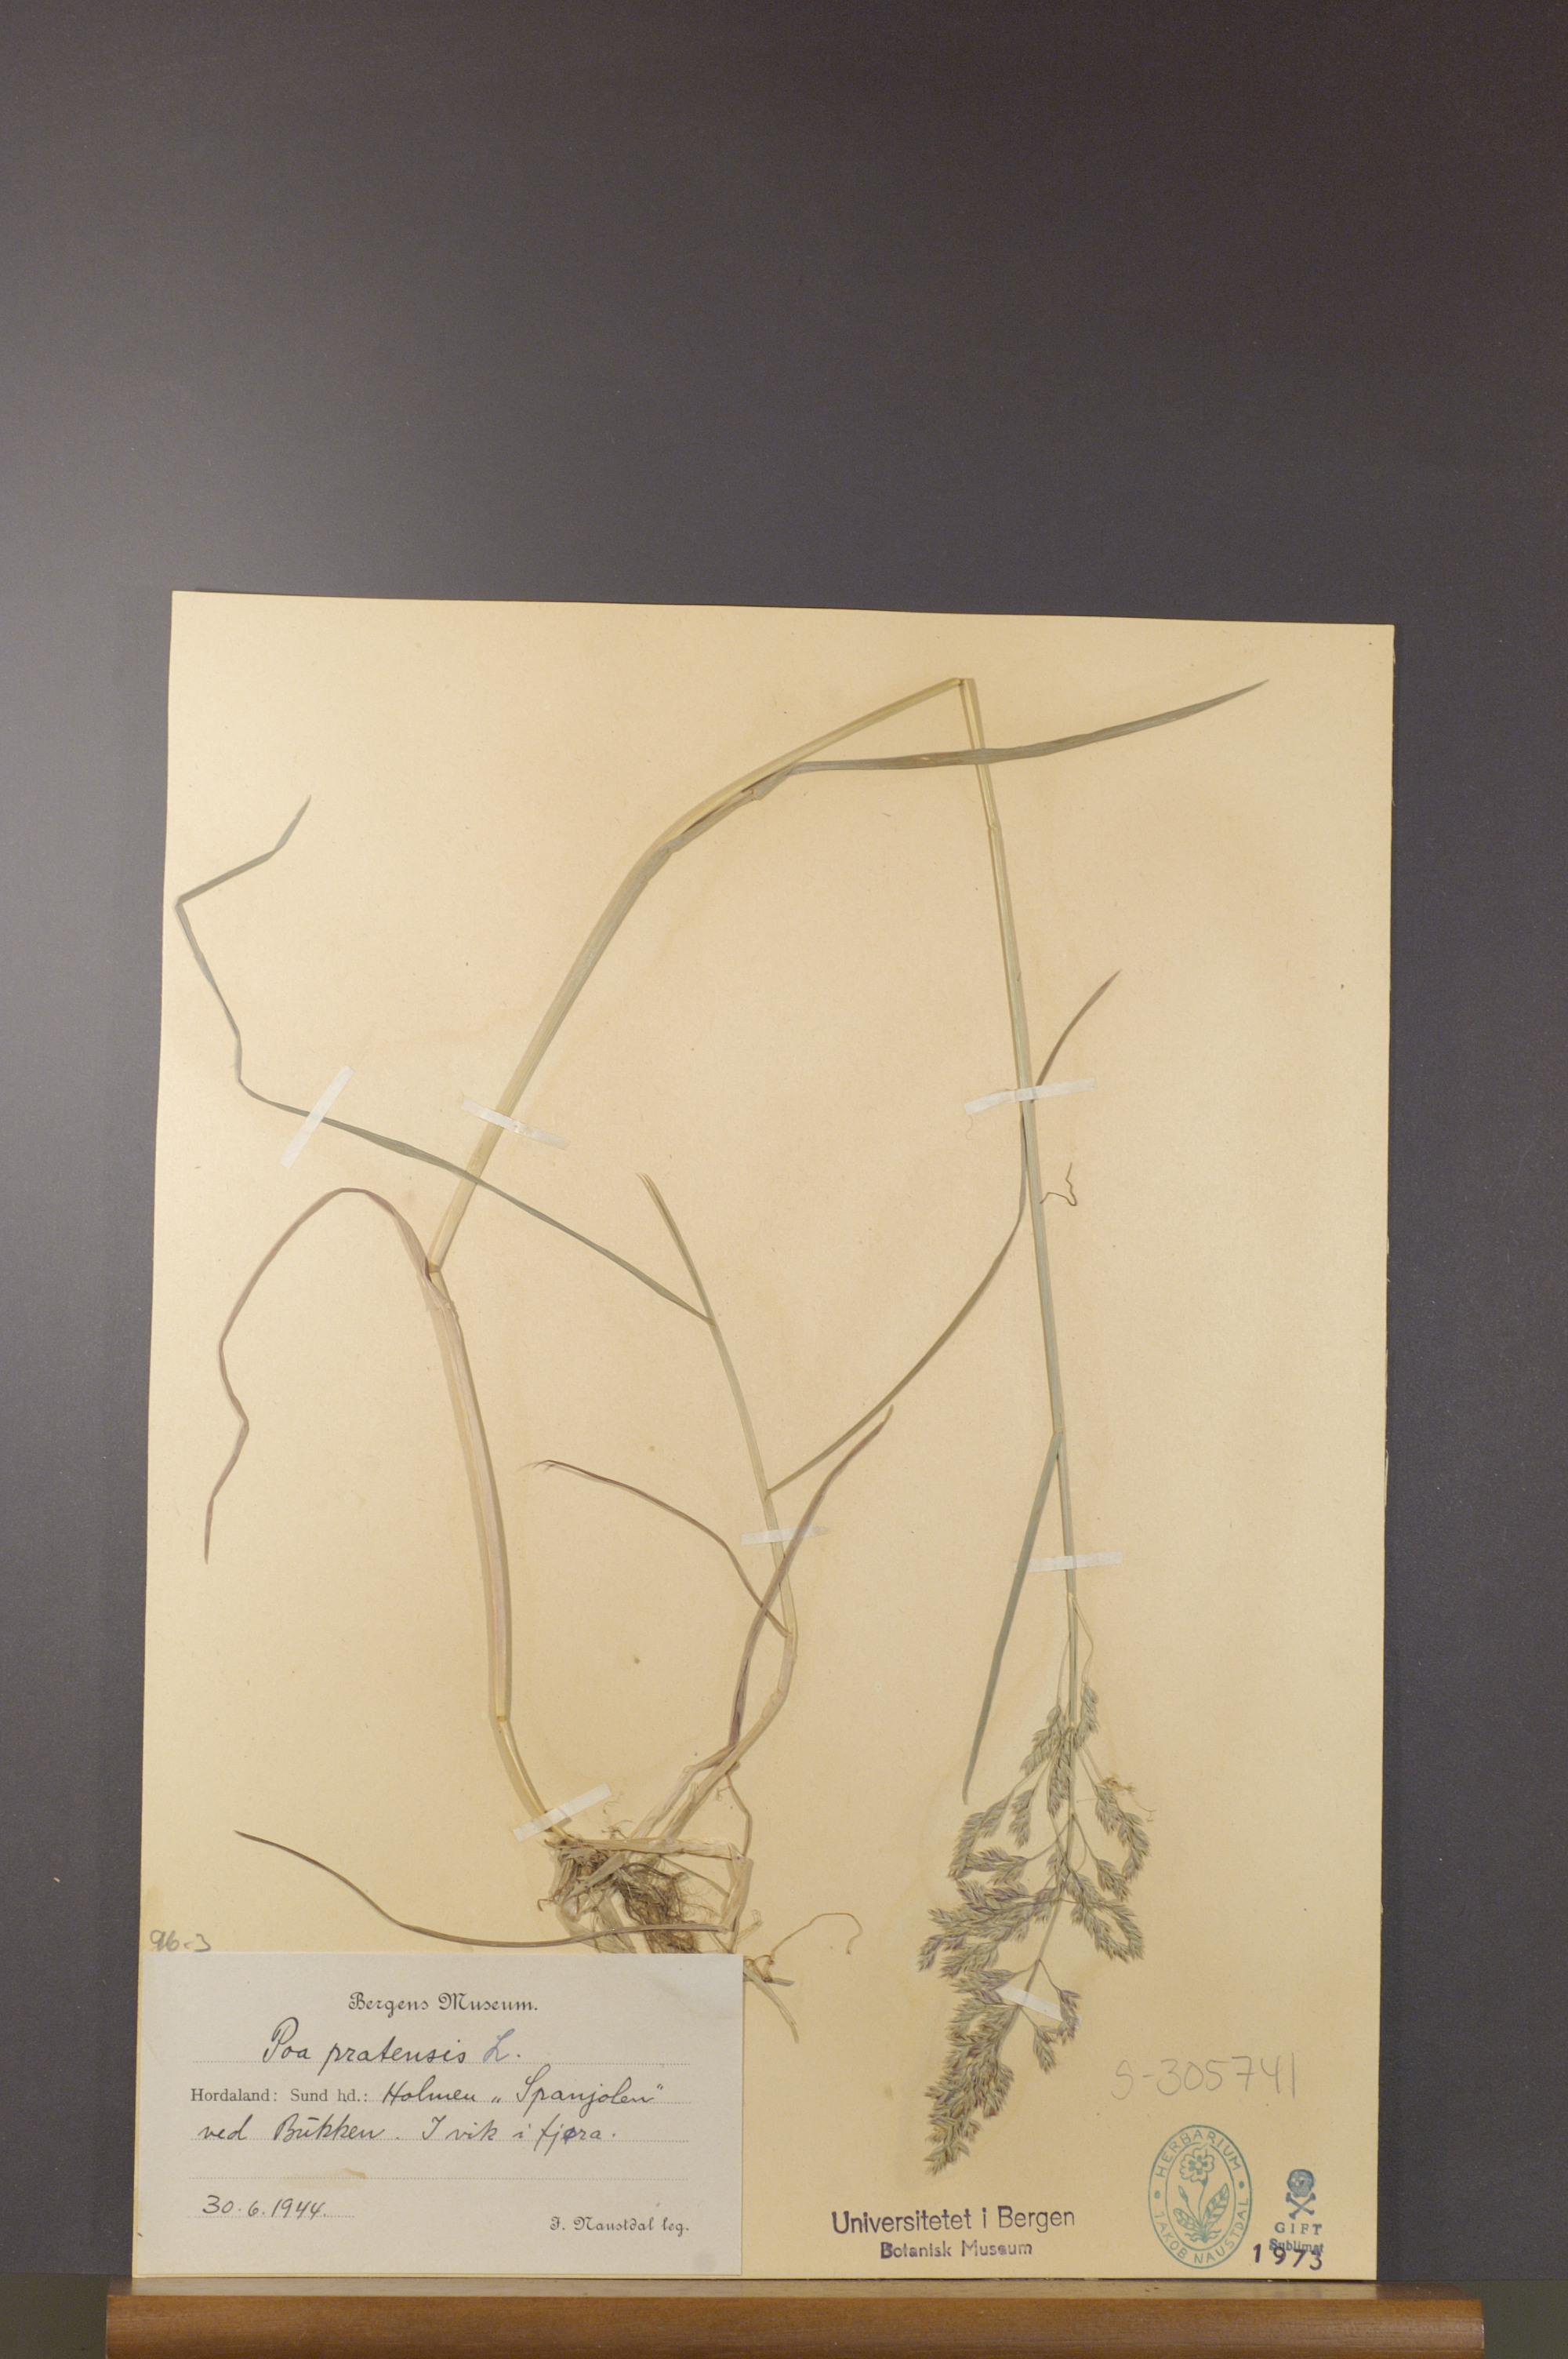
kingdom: Plantae
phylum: Tracheophyta
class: Liliopsida
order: Poales
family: Poaceae
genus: Poa
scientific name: Poa pratensis
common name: Kentucky bluegrass
